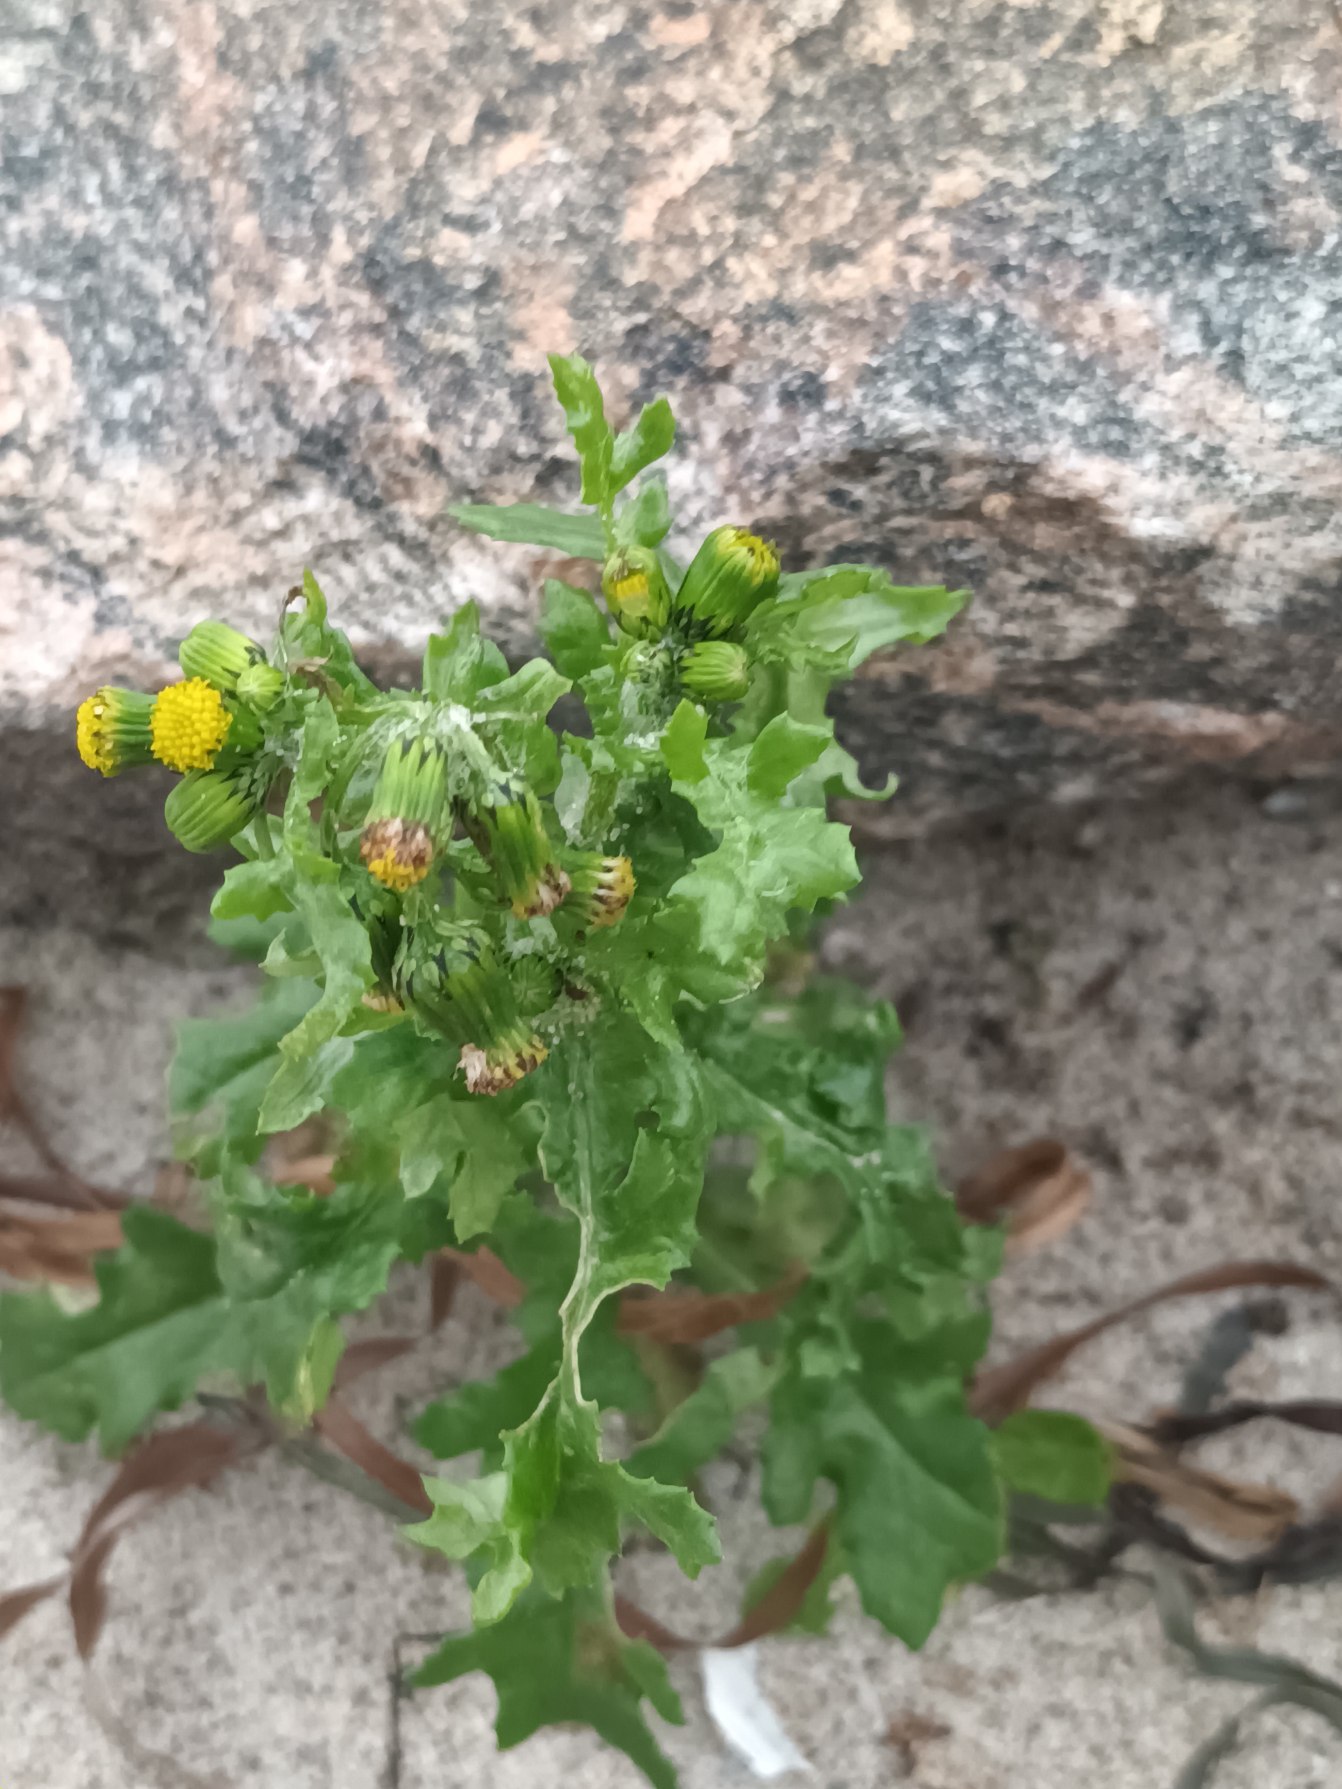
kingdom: Plantae
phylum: Tracheophyta
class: Magnoliopsida
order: Asterales
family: Asteraceae
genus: Senecio
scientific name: Senecio vulgaris
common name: Almindelig brandbæger
